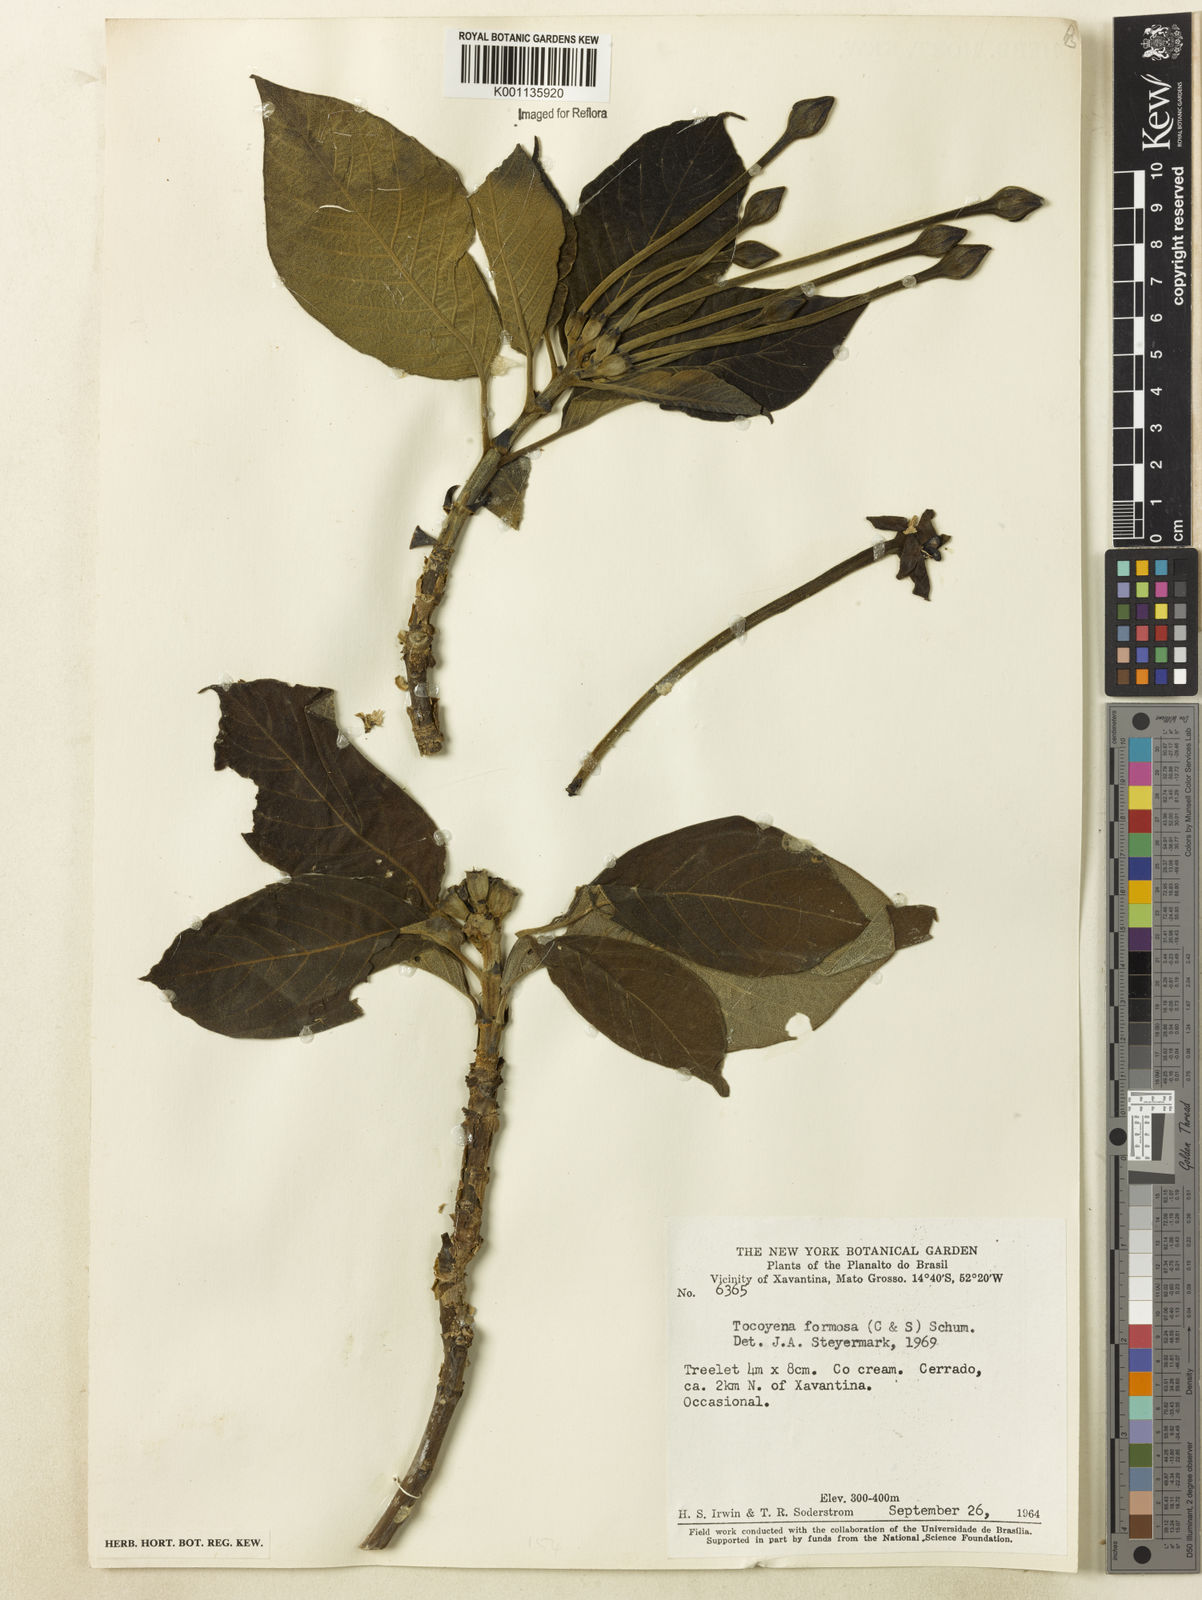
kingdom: Plantae
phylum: Tracheophyta
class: Magnoliopsida
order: Gentianales
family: Rubiaceae
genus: Tocoyena
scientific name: Tocoyena formosa
